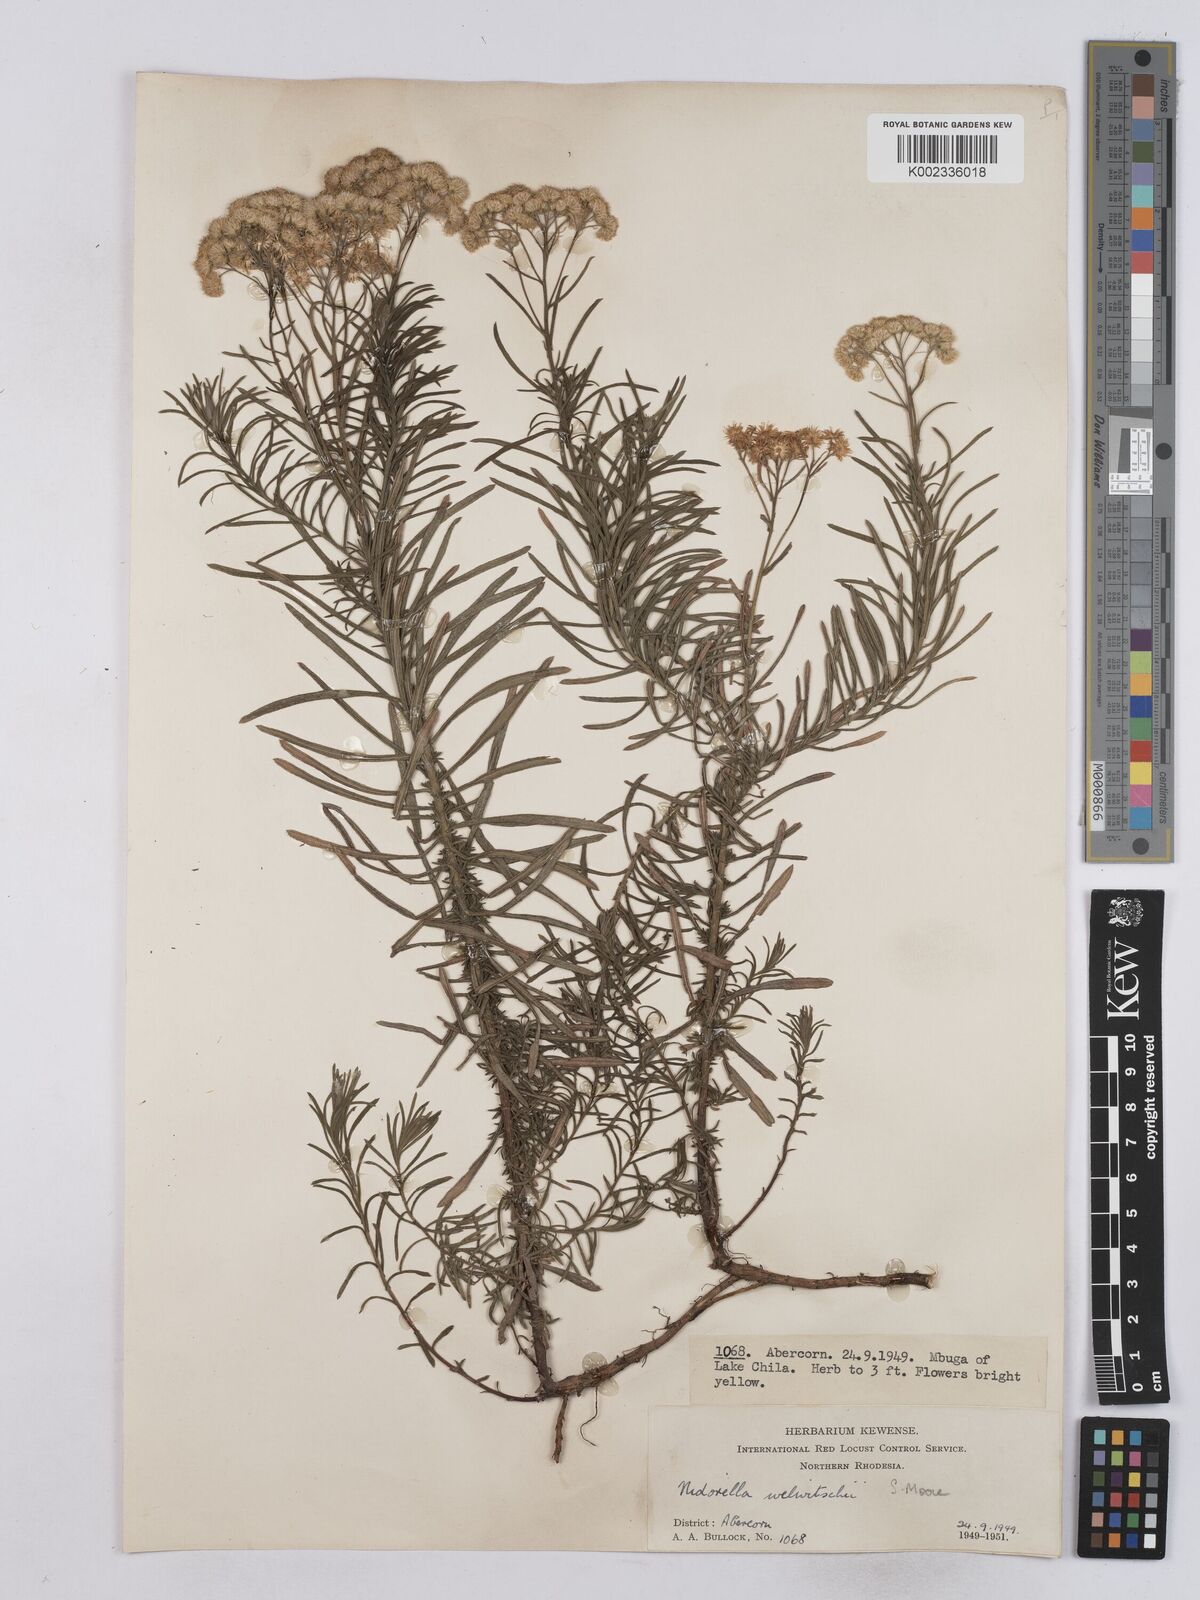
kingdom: Plantae
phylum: Tracheophyta
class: Magnoliopsida
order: Asterales
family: Asteraceae
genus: Nidorella
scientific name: Nidorella welwitschii
